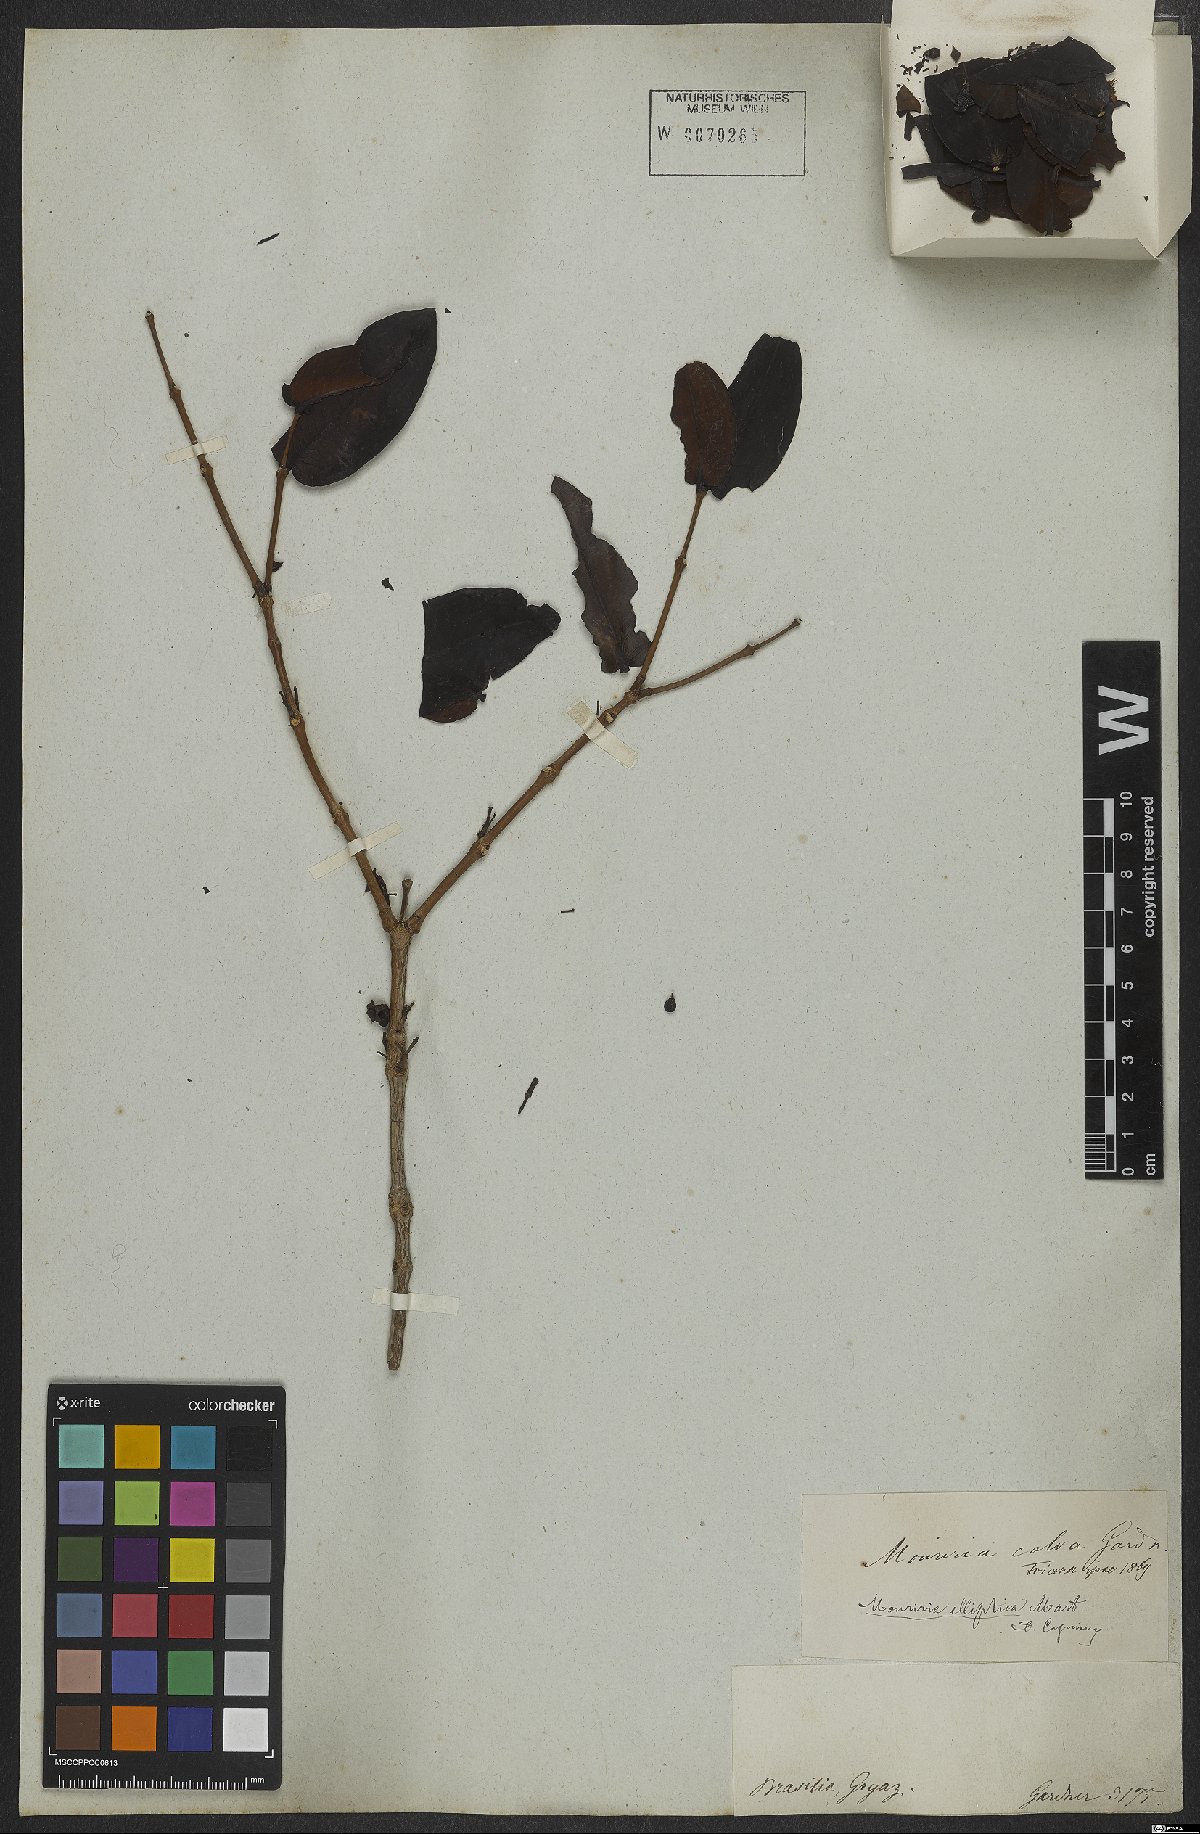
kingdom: Plantae
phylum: Tracheophyta
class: Magnoliopsida
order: Myrtales
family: Melastomataceae
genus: Mouriri
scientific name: Mouriri elliptica
